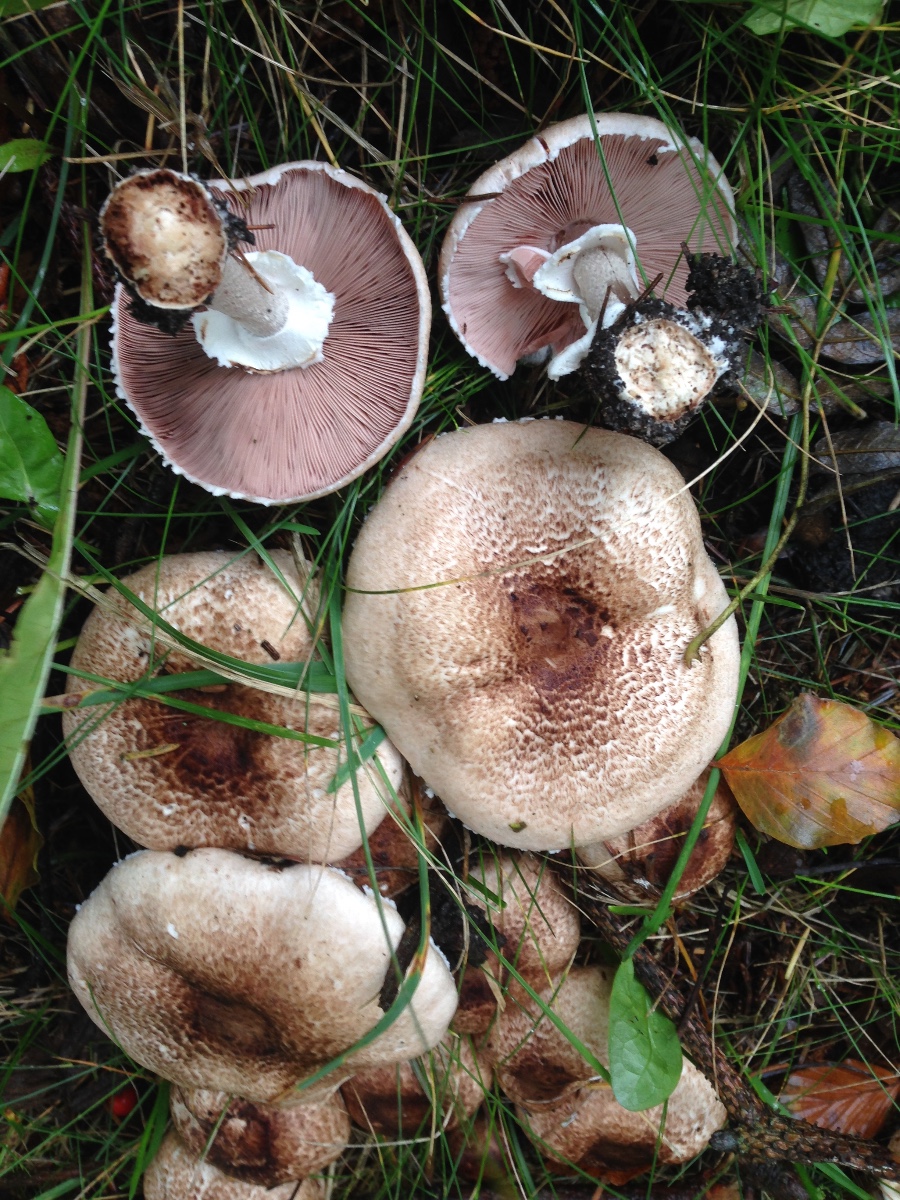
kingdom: Fungi
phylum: Basidiomycota
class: Agaricomycetes
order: Agaricales
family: Agaricaceae
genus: Agaricus
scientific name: Agaricus impudicus
